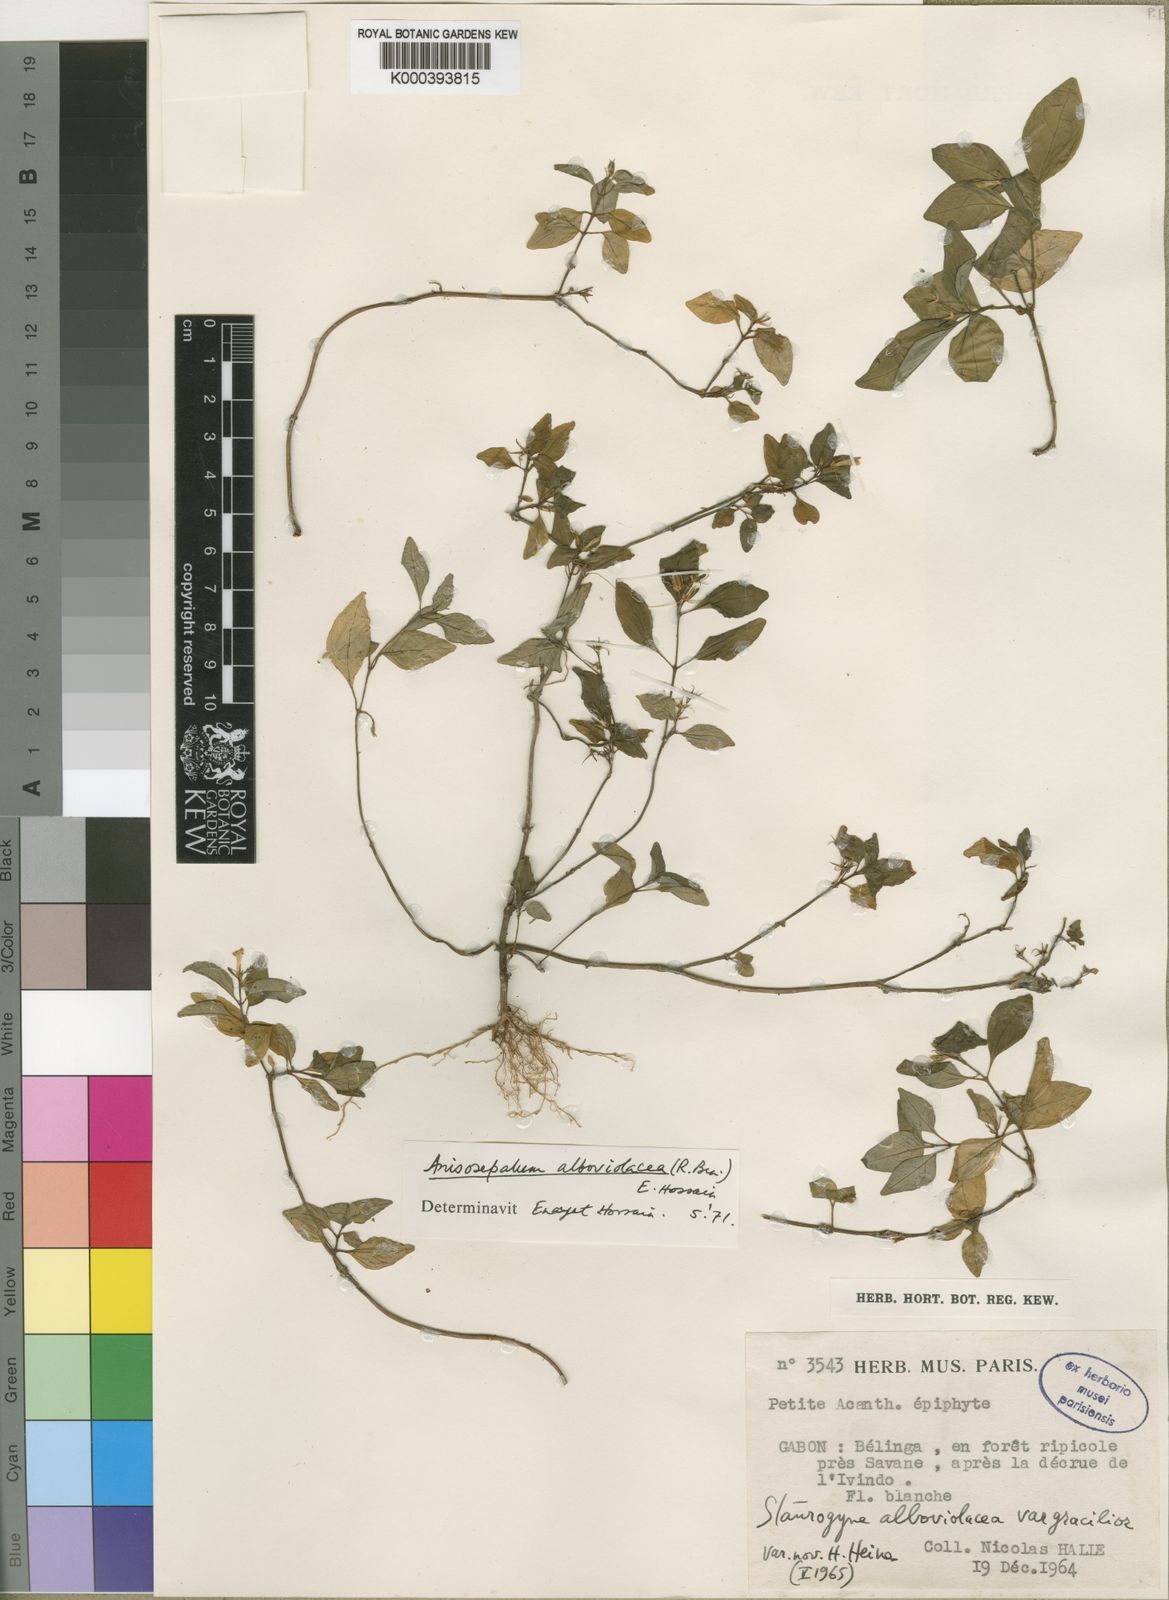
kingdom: Plantae
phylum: Tracheophyta
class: Magnoliopsida
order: Lamiales
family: Acanthaceae
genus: Anisosepalum
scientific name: Anisosepalum alboviolaceum
